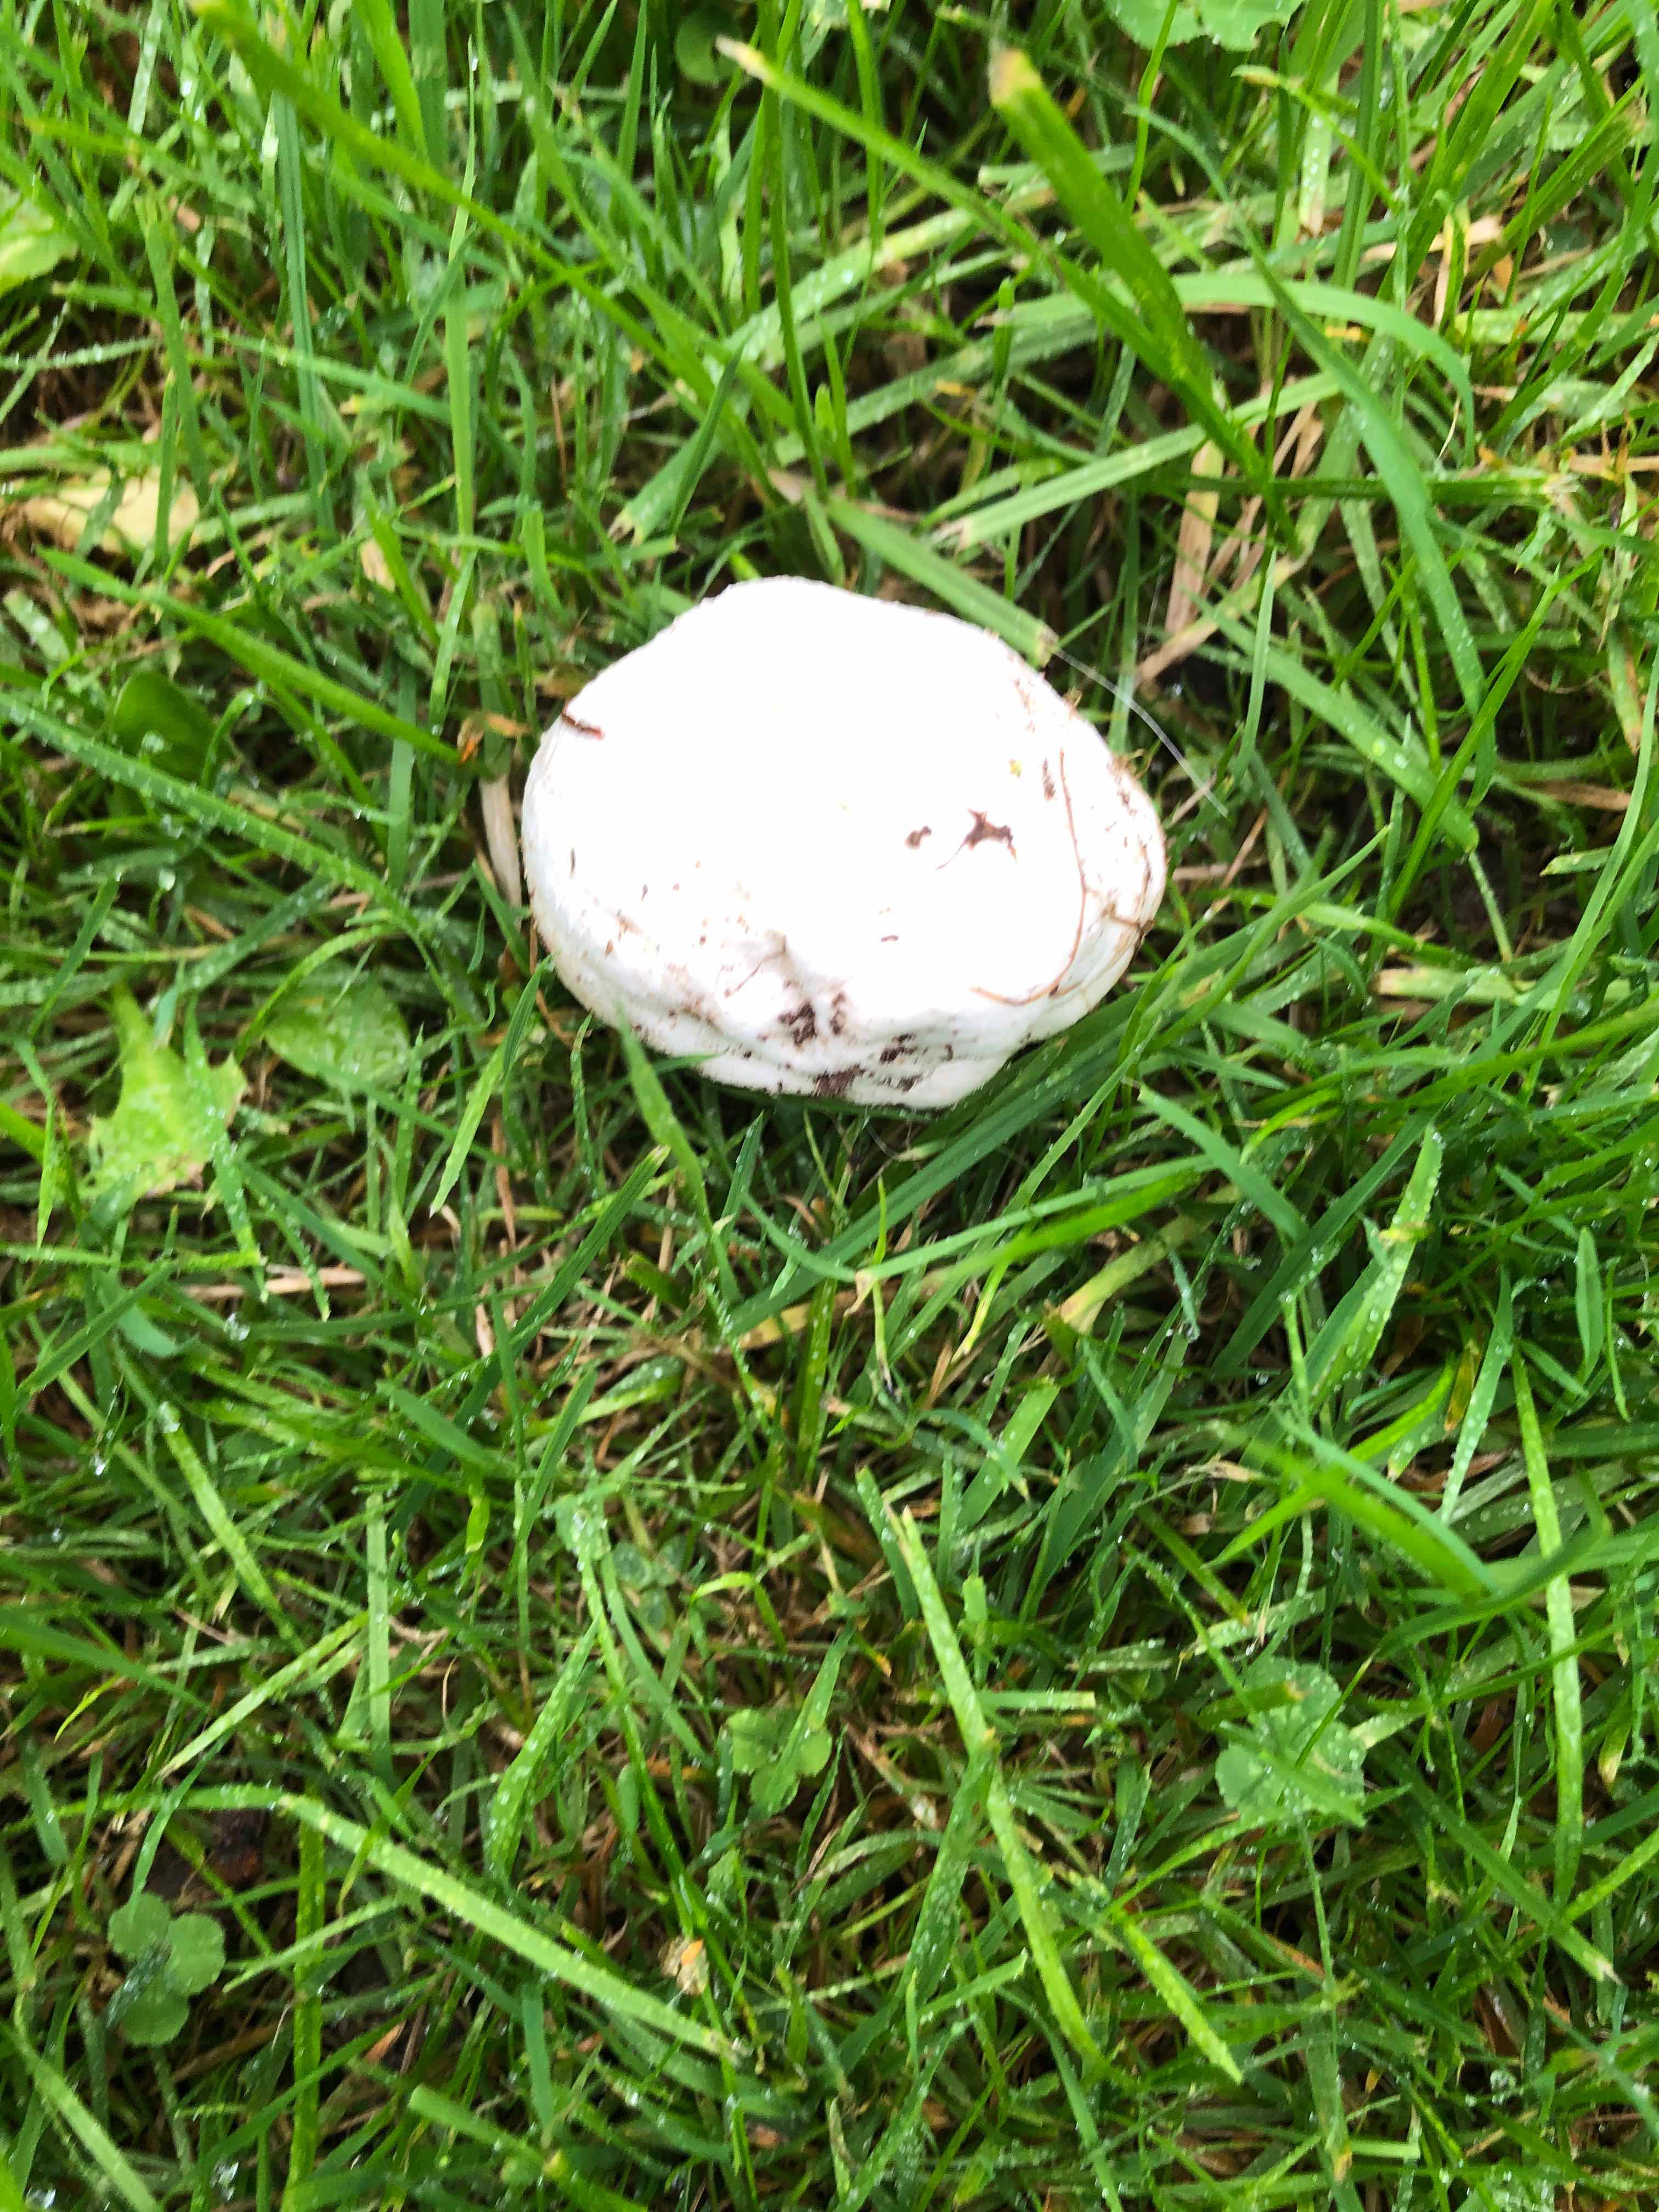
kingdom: Fungi
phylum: Basidiomycota
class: Agaricomycetes
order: Agaricales
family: Lycoperdaceae
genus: Bovista
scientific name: Bovista
